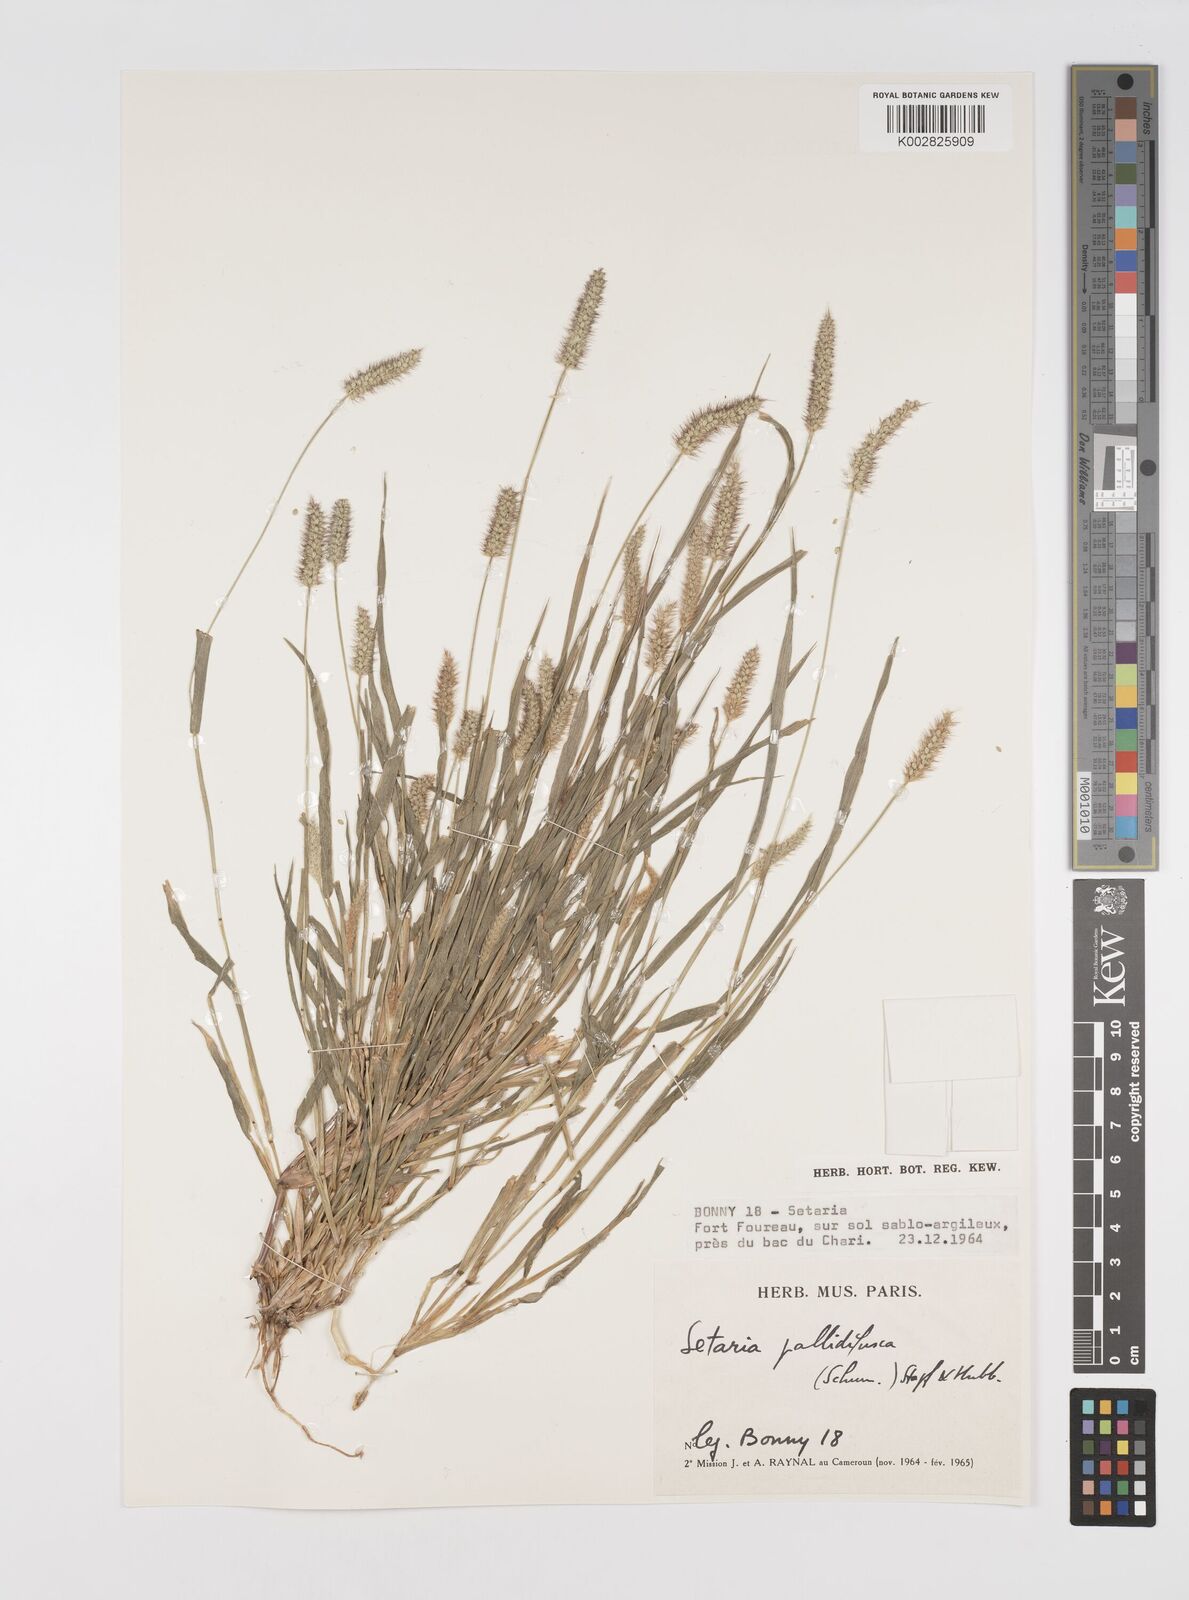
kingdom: Plantae
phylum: Tracheophyta
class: Liliopsida
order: Poales
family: Poaceae
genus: Setaria
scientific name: Setaria pumila
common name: Yellow bristle-grass
